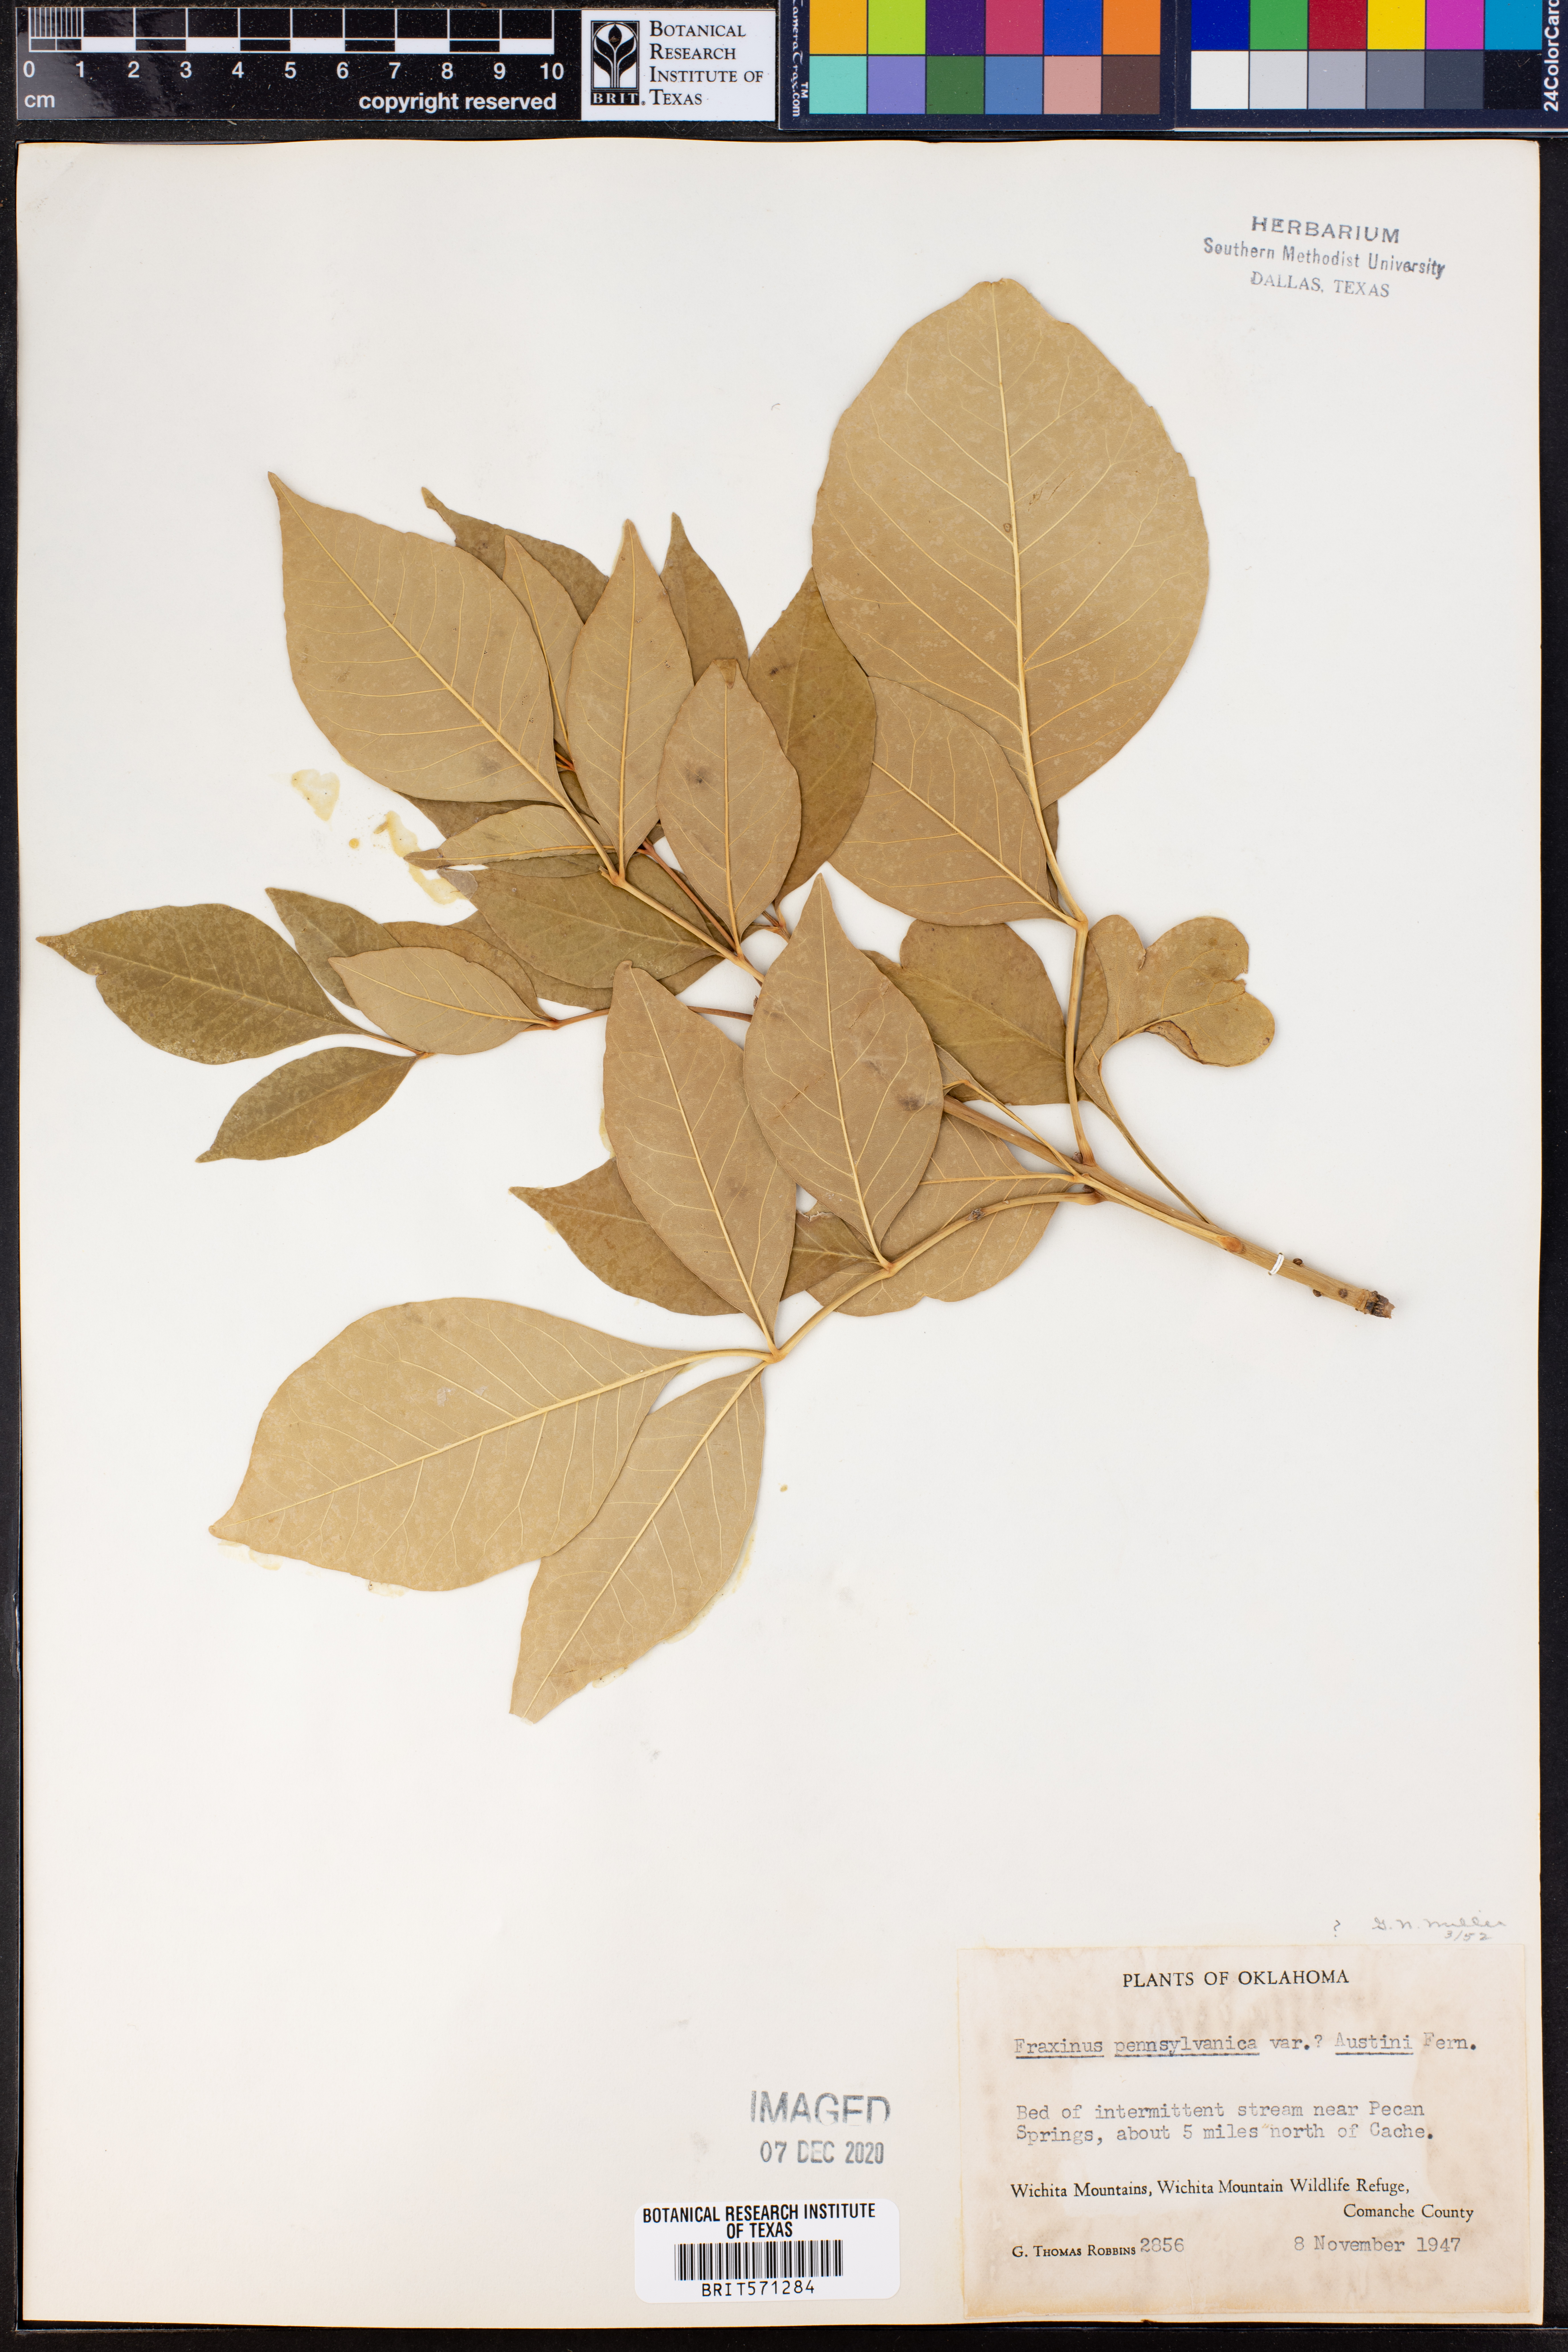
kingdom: Plantae
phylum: Tracheophyta
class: Magnoliopsida
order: Lamiales
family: Oleaceae
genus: Fraxinus
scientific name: Fraxinus pennsylvanica
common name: Green ash
